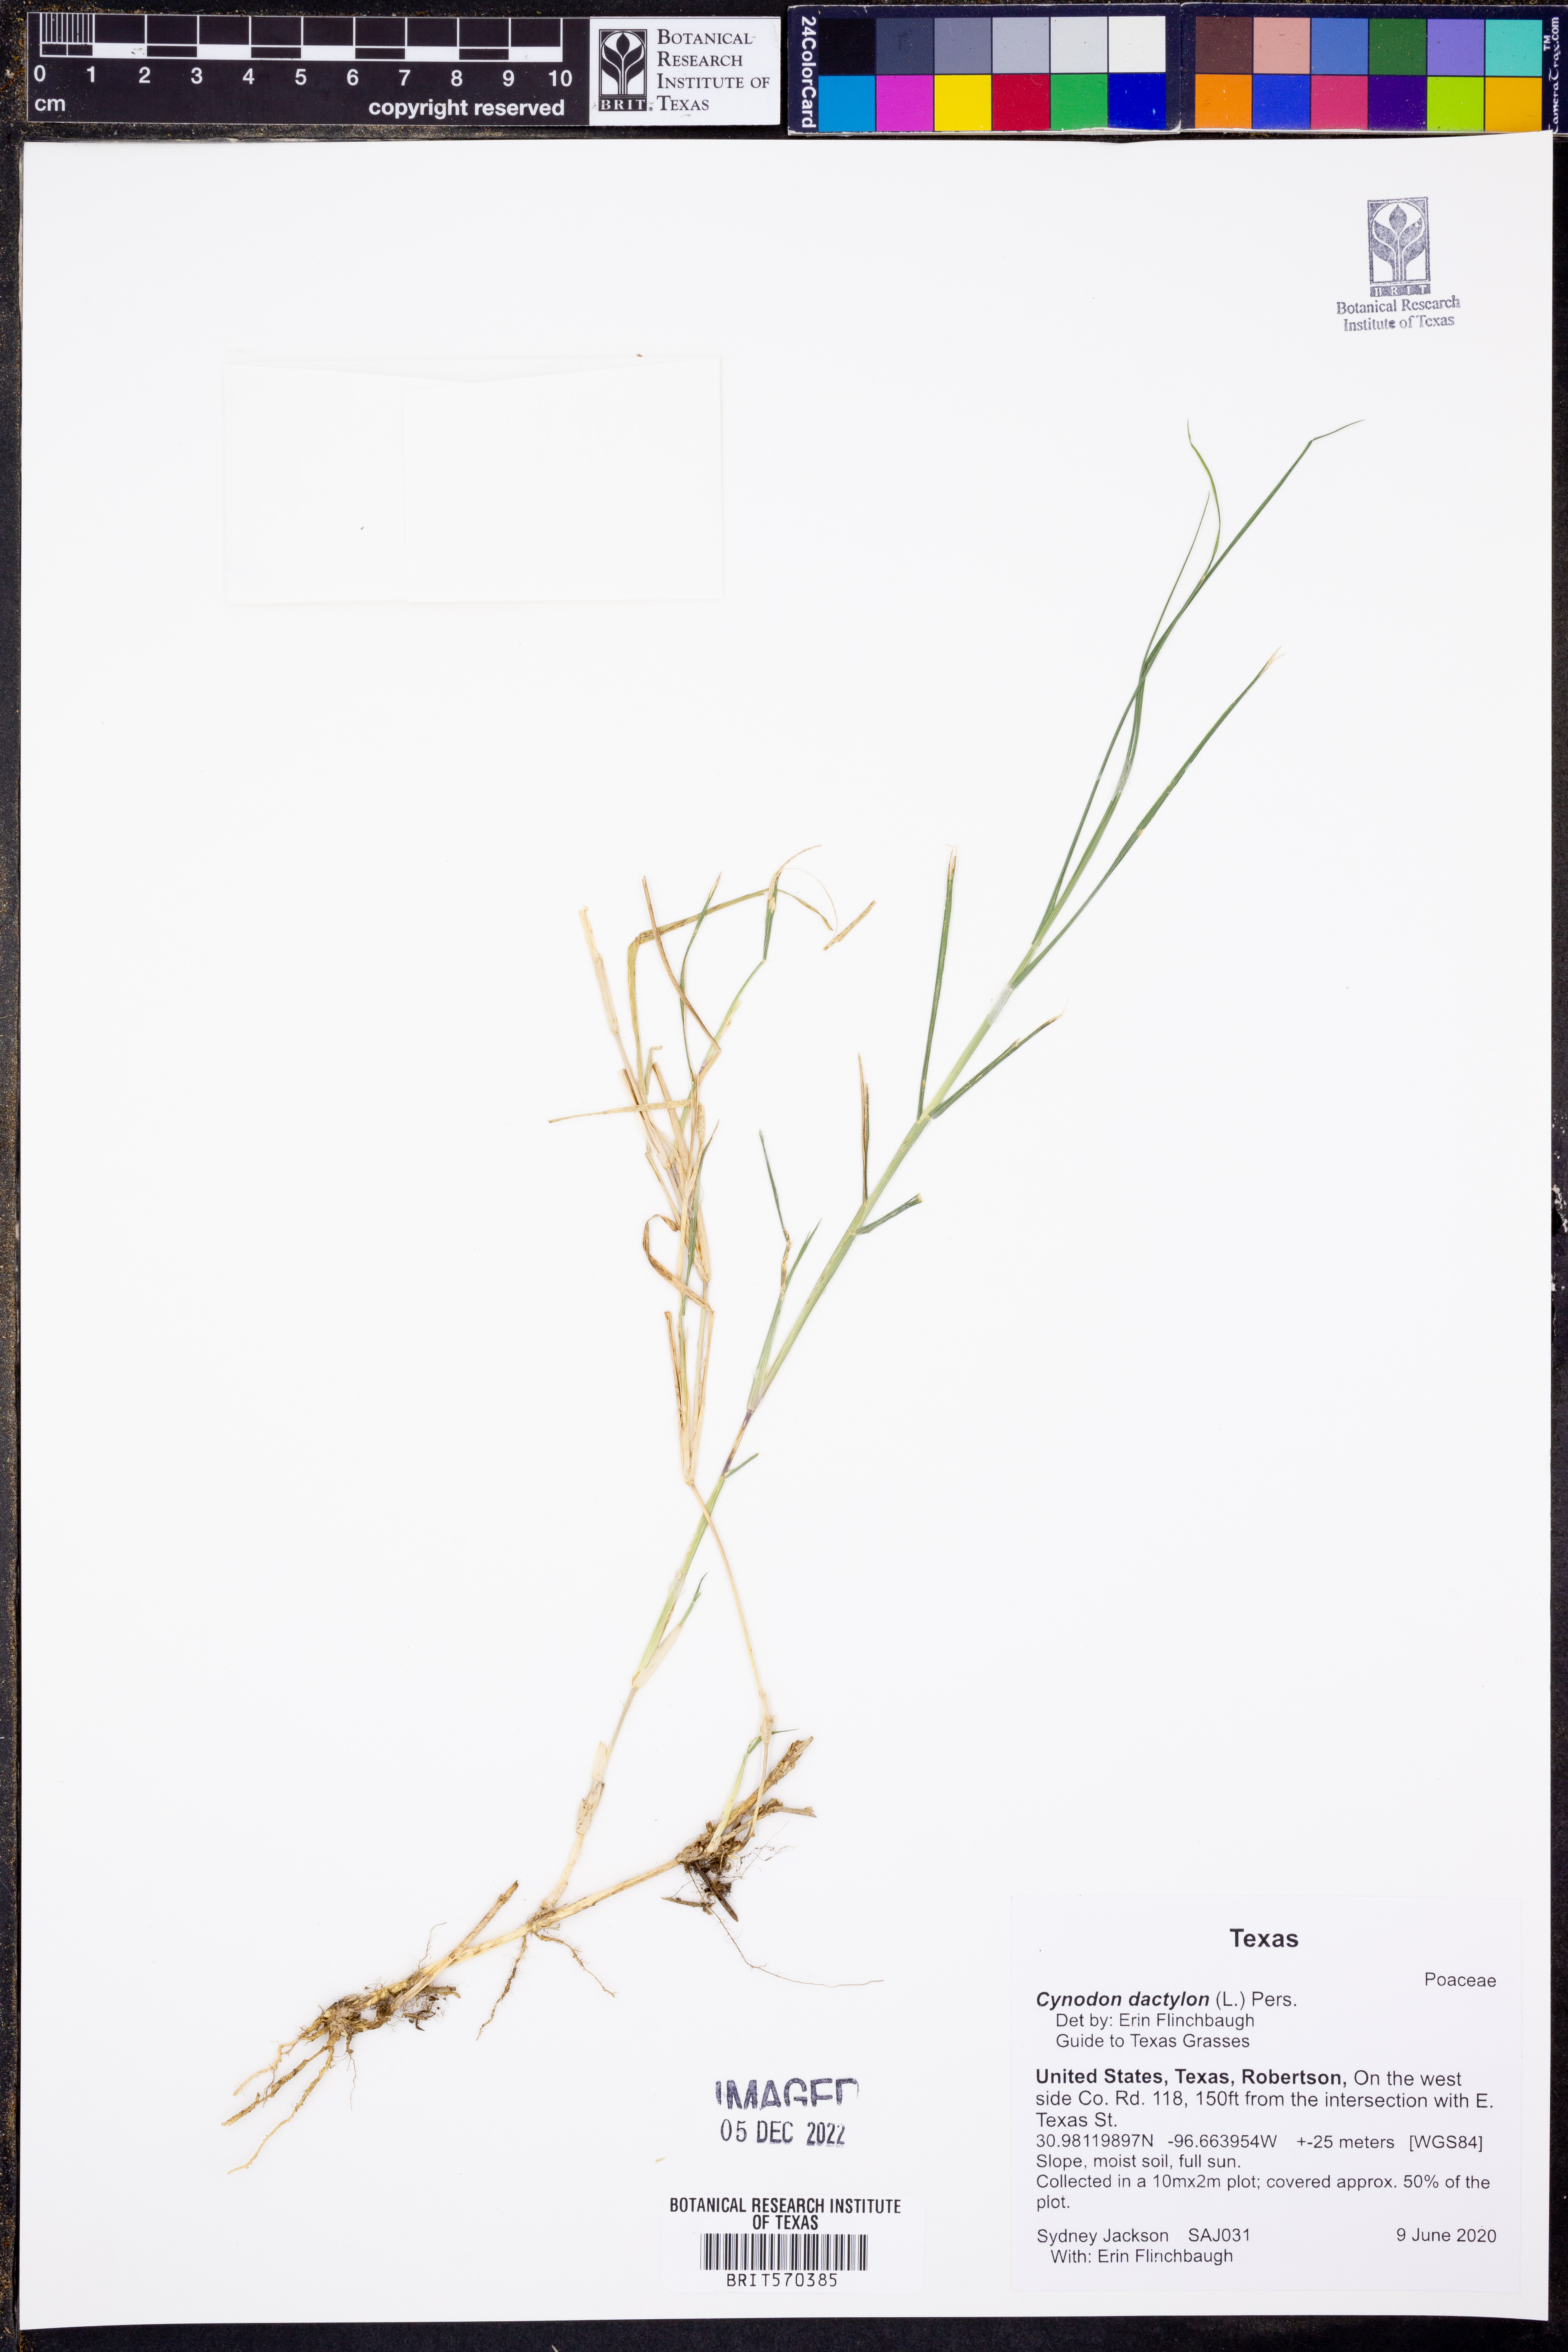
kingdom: Plantae
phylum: Tracheophyta
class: Liliopsida
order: Poales
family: Poaceae
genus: Cynodon
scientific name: Cynodon dactylon
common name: Bermuda grass
